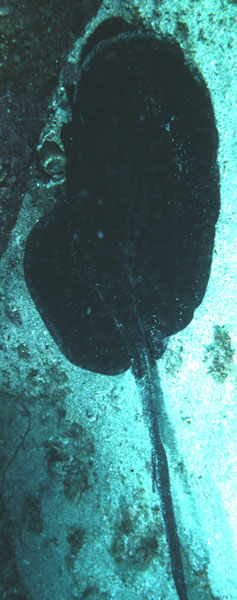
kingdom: Animalia
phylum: Chordata
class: Elasmobranchii
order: Myliobatiformes
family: Dasyatidae
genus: Taeniurops
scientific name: Taeniurops meyeni
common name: Black-blotched stingray
